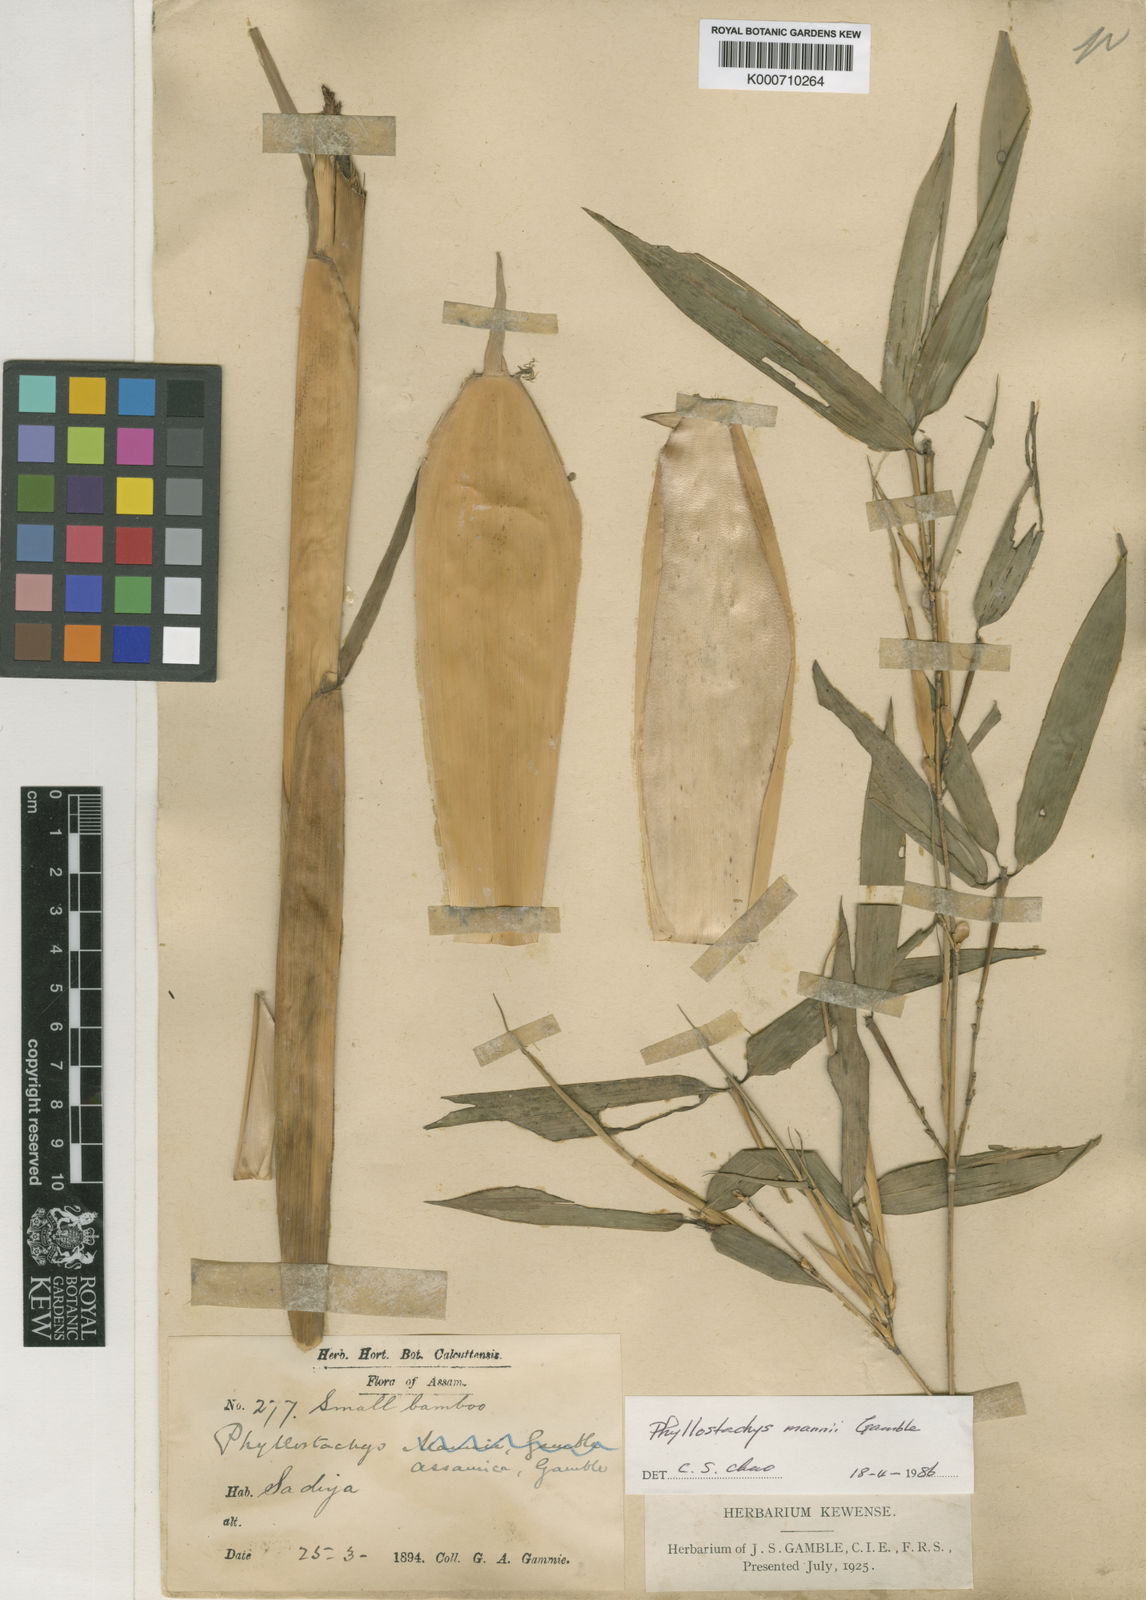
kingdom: Plantae
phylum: Tracheophyta
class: Liliopsida
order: Poales
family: Poaceae
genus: Phyllostachys
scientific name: Phyllostachys mannii
